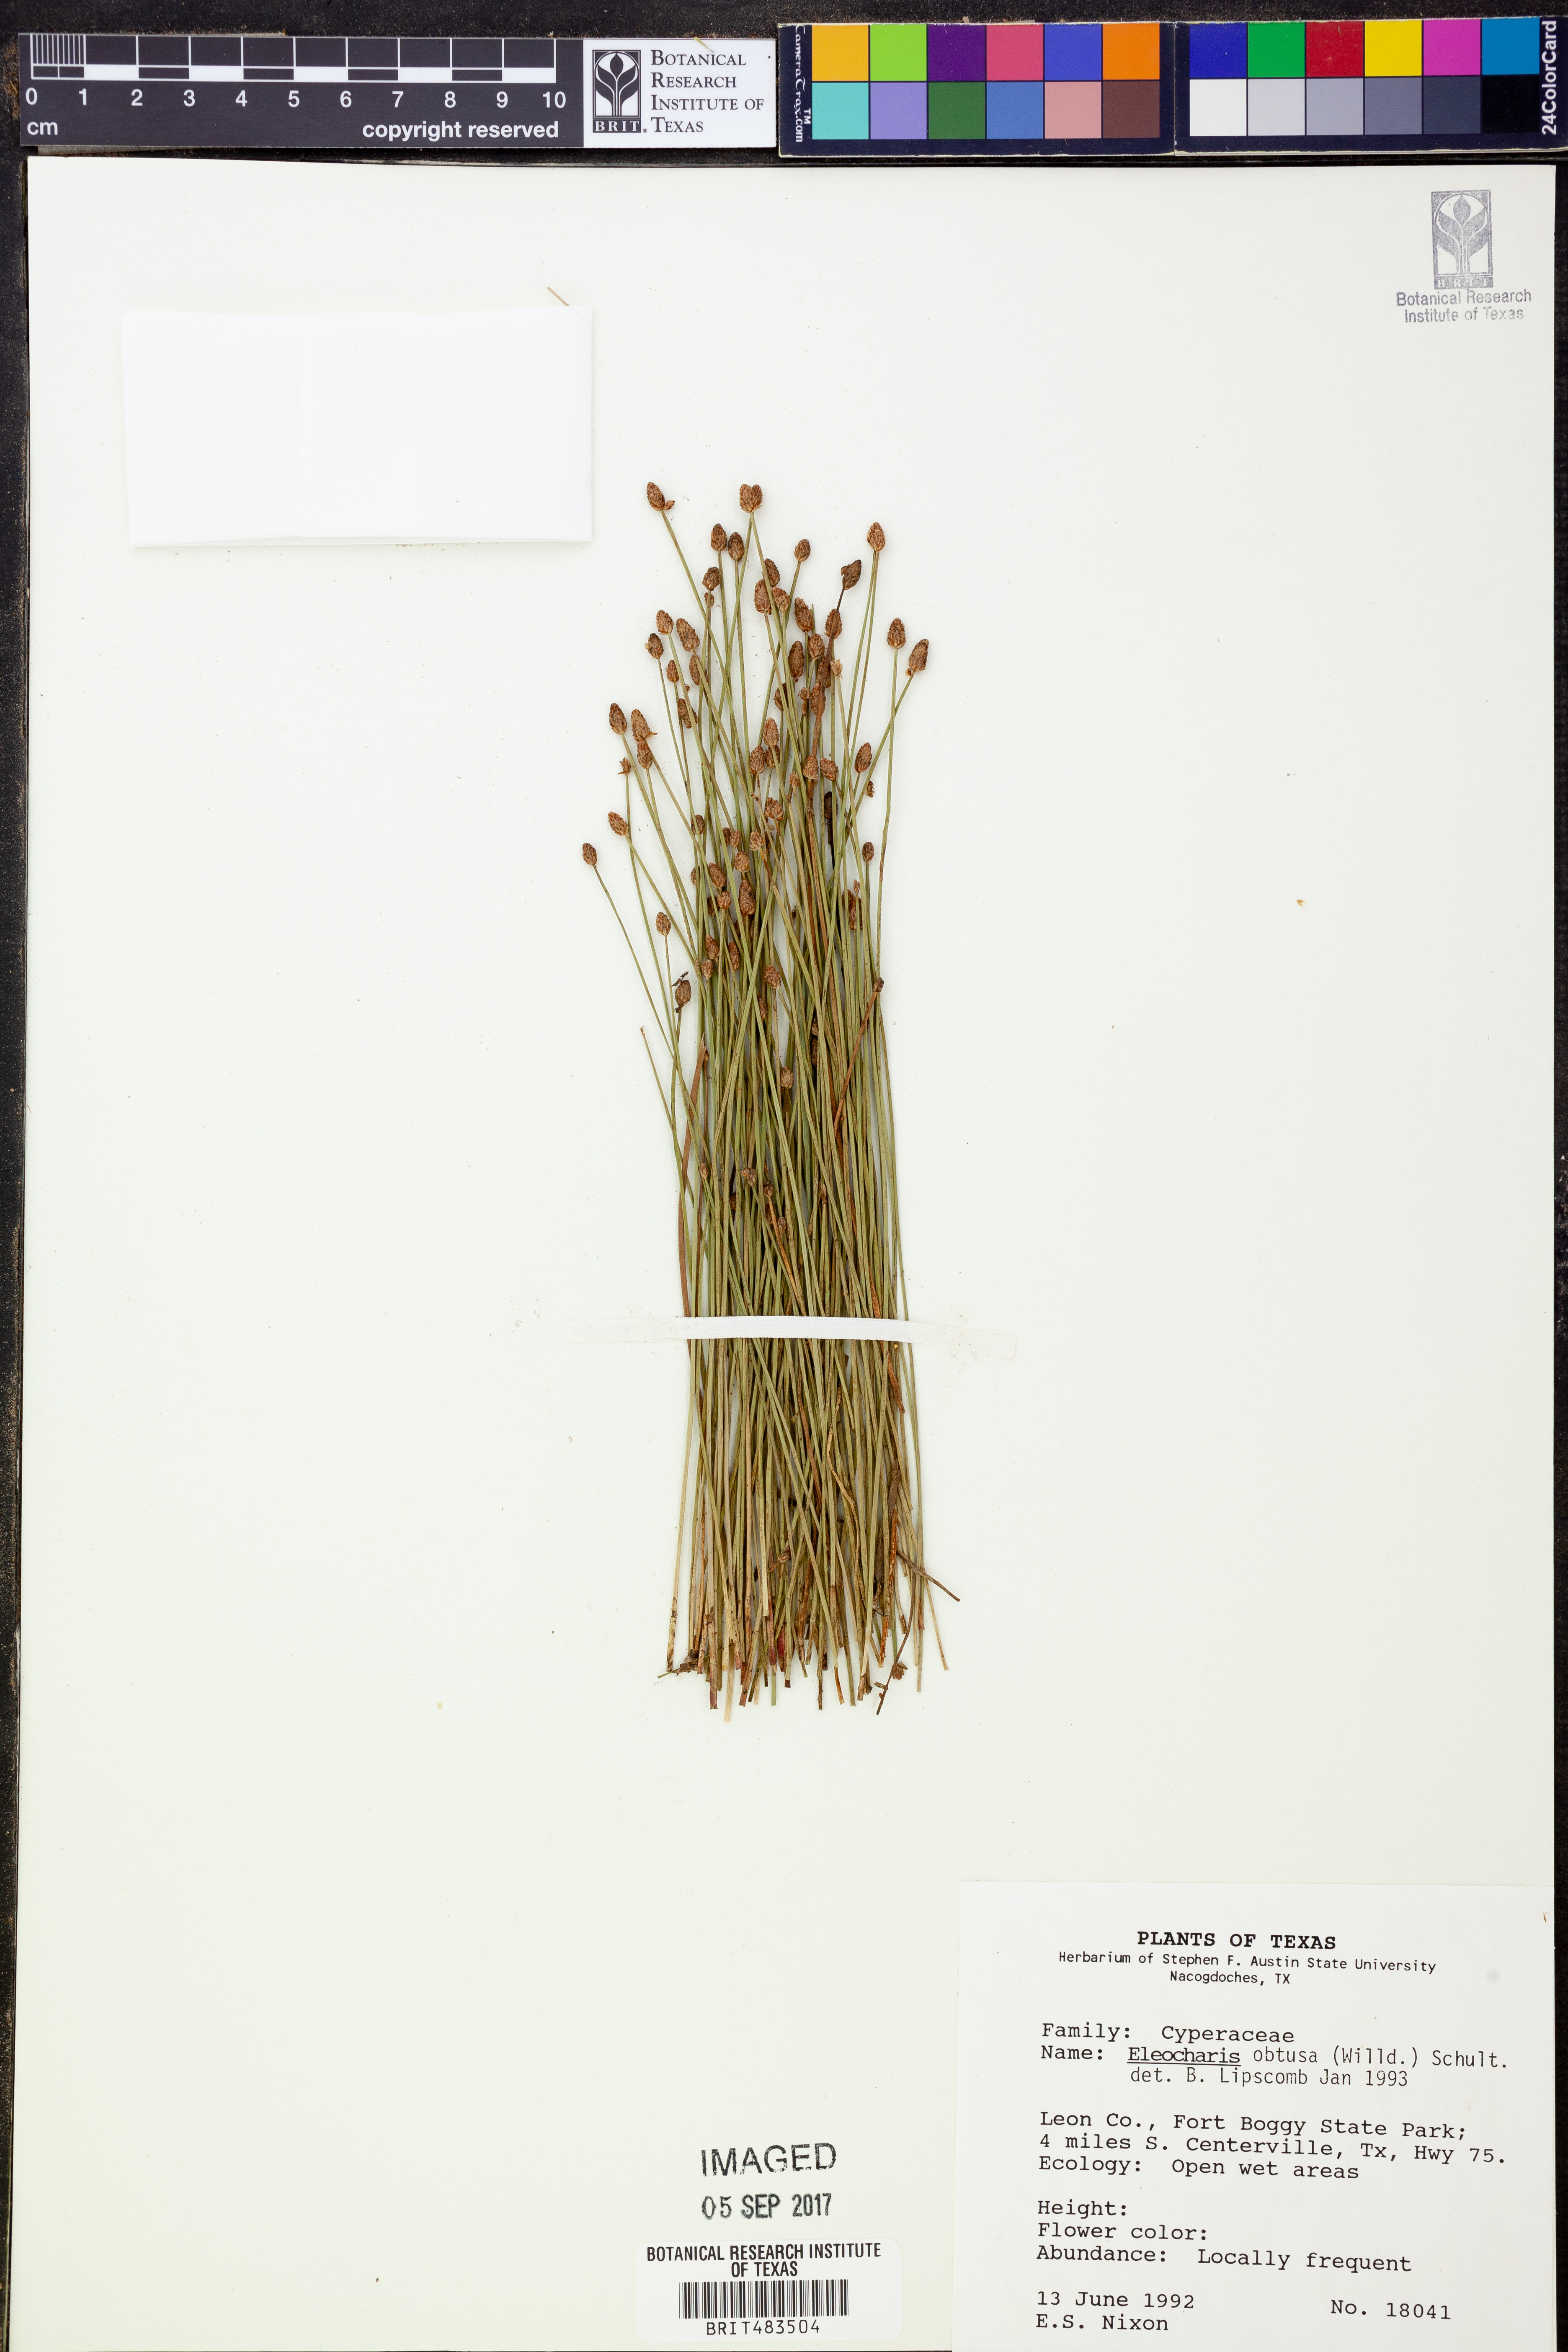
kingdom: Plantae
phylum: Tracheophyta
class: Liliopsida
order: Poales
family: Cyperaceae
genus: Eleocharis
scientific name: Eleocharis obtusa
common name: Blunt spikerush
